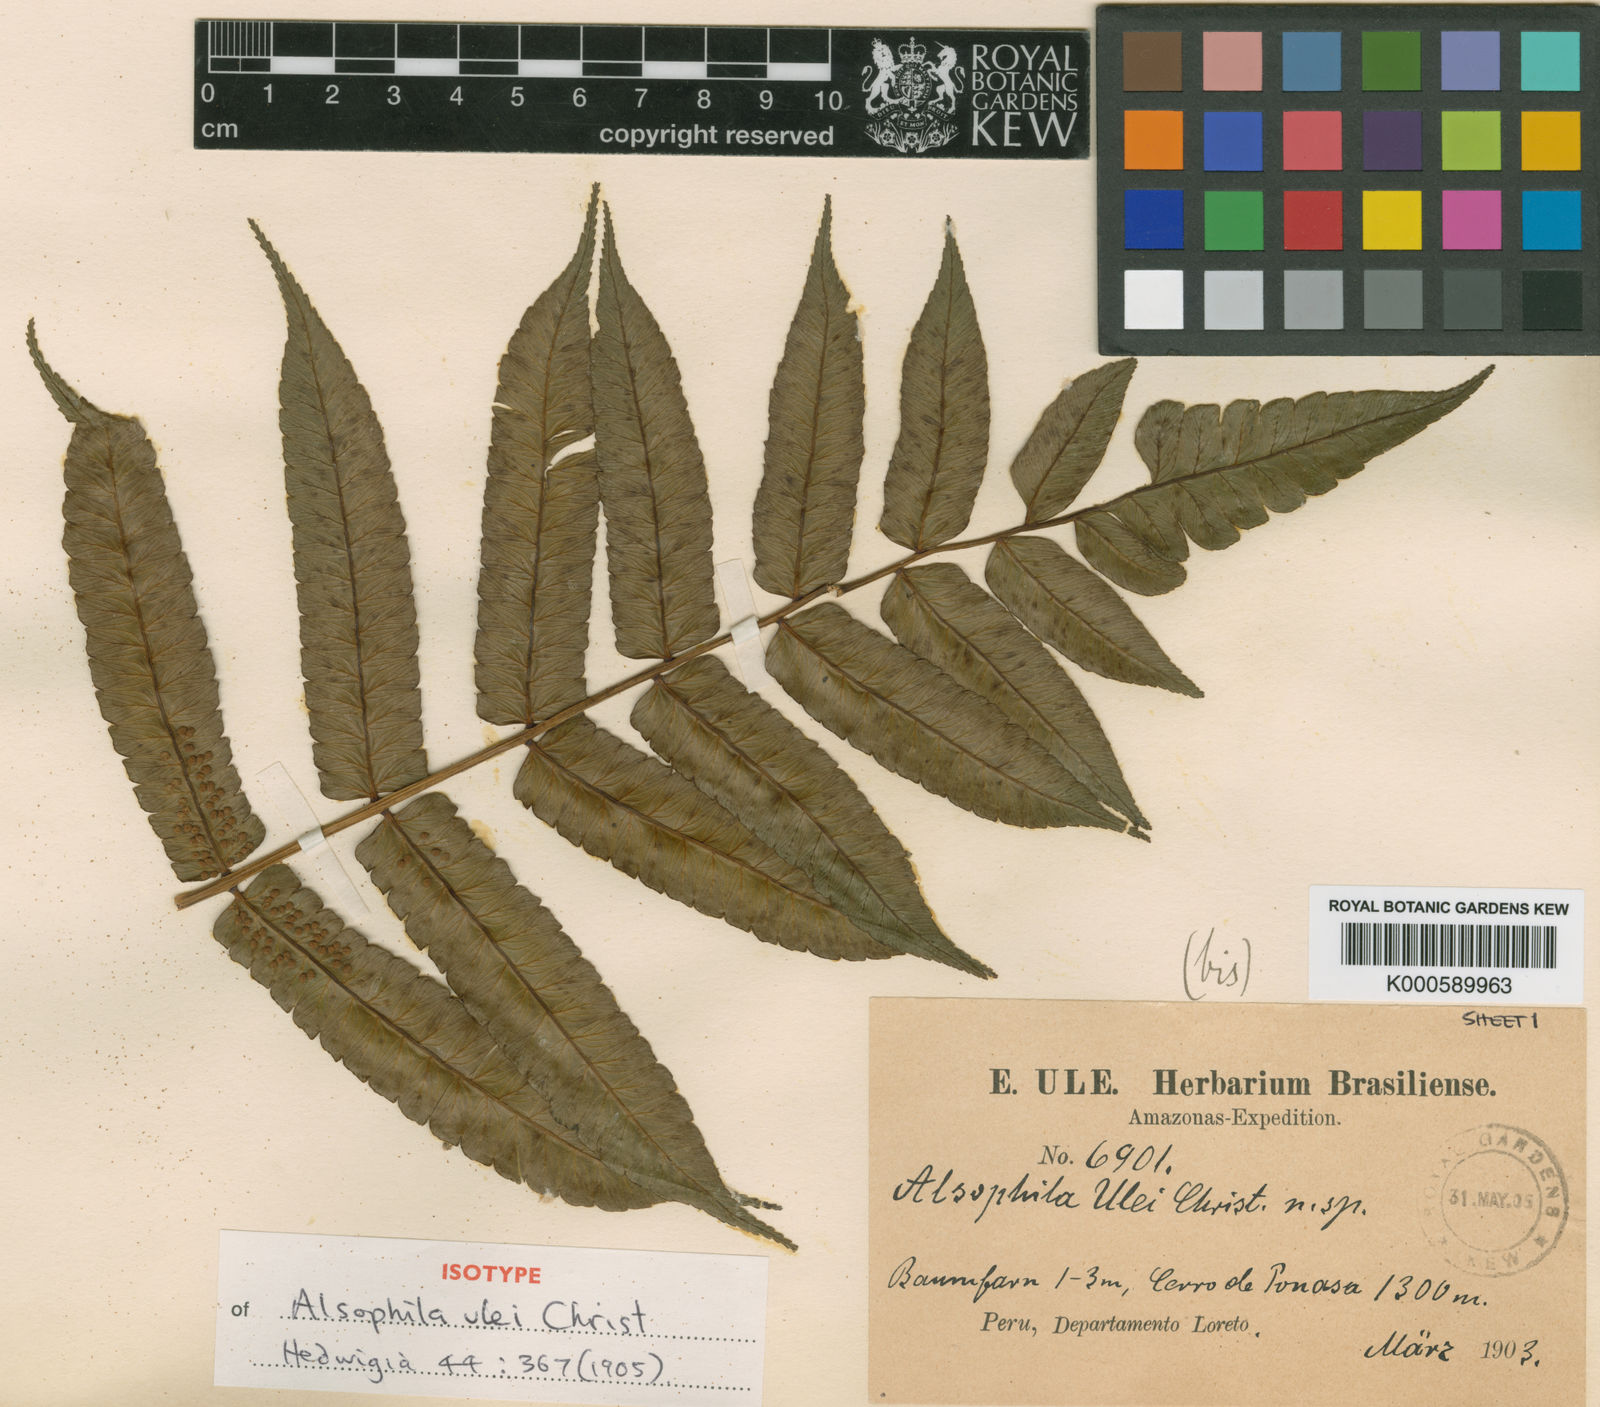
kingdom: Plantae
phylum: Tracheophyta
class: Polypodiopsida
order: Cyatheales
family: Cyatheaceae
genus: Cyathea
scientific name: Cyathea lechleri
